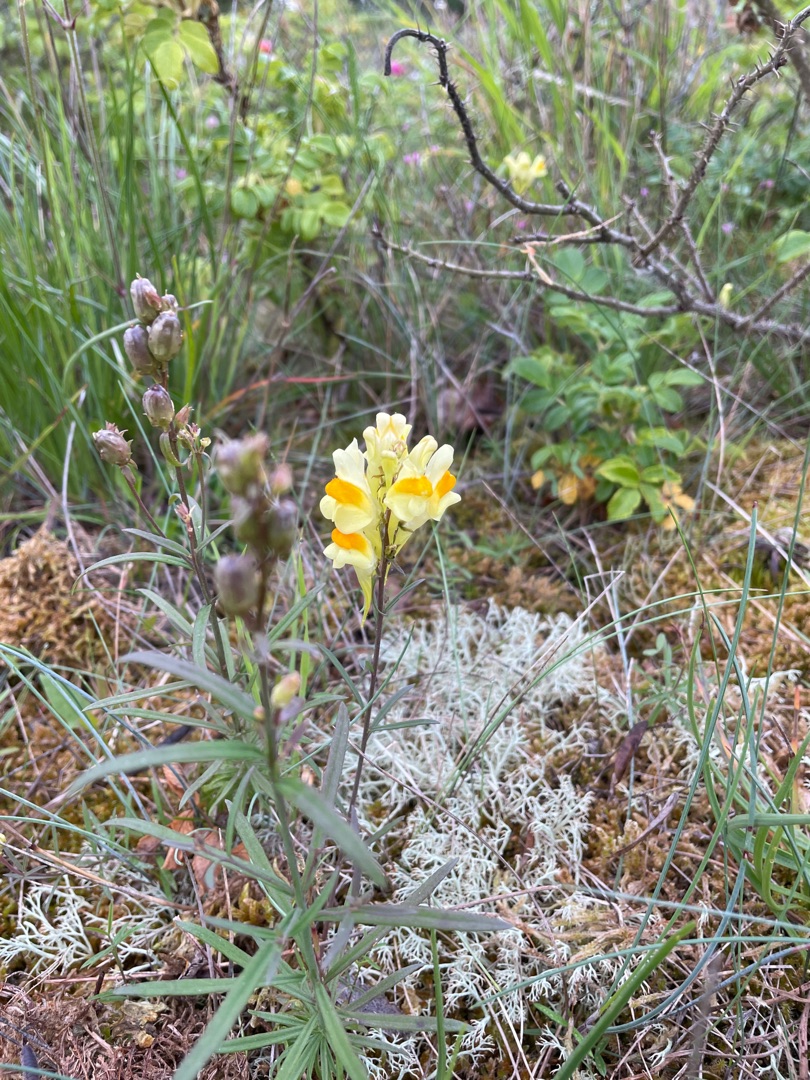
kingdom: Plantae
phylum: Tracheophyta
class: Magnoliopsida
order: Lamiales
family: Plantaginaceae
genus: Linaria
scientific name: Linaria vulgaris
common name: Almindelig torskemund
